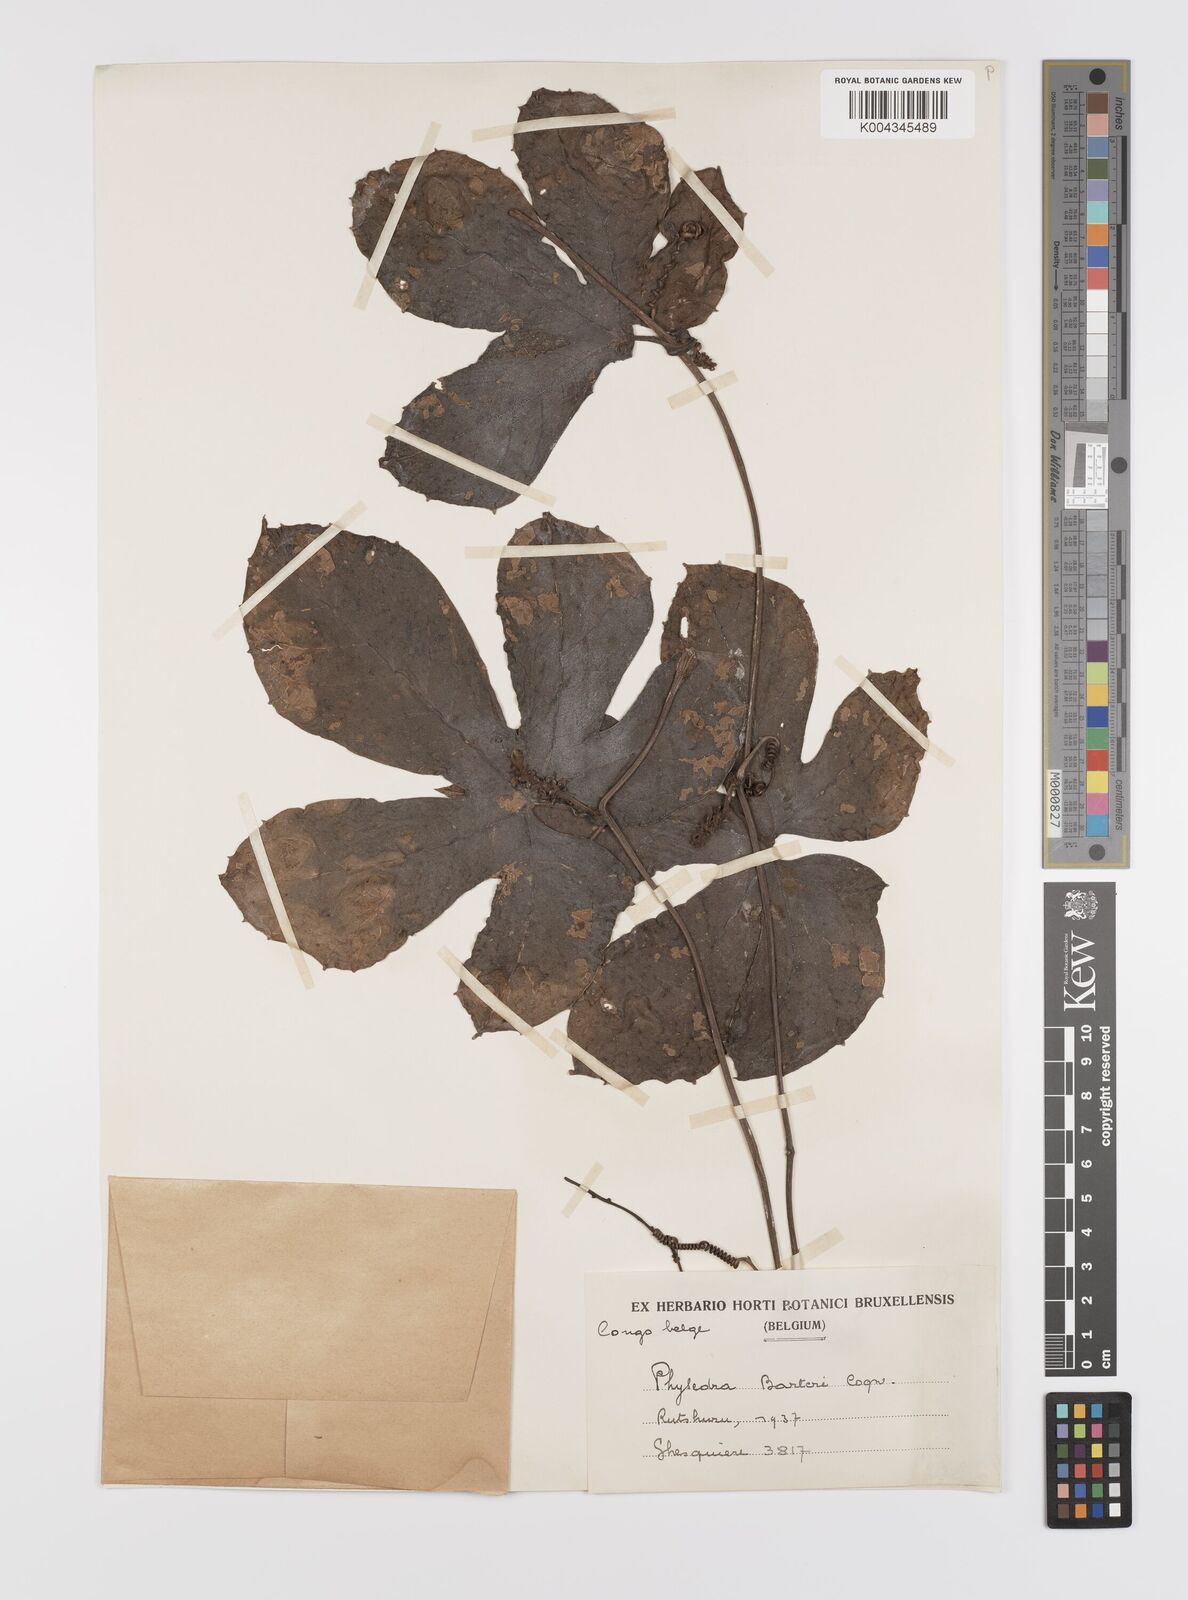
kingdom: Plantae
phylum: Tracheophyta
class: Magnoliopsida
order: Cucurbitales
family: Cucurbitaceae
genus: Coccinia
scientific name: Coccinia barteri
